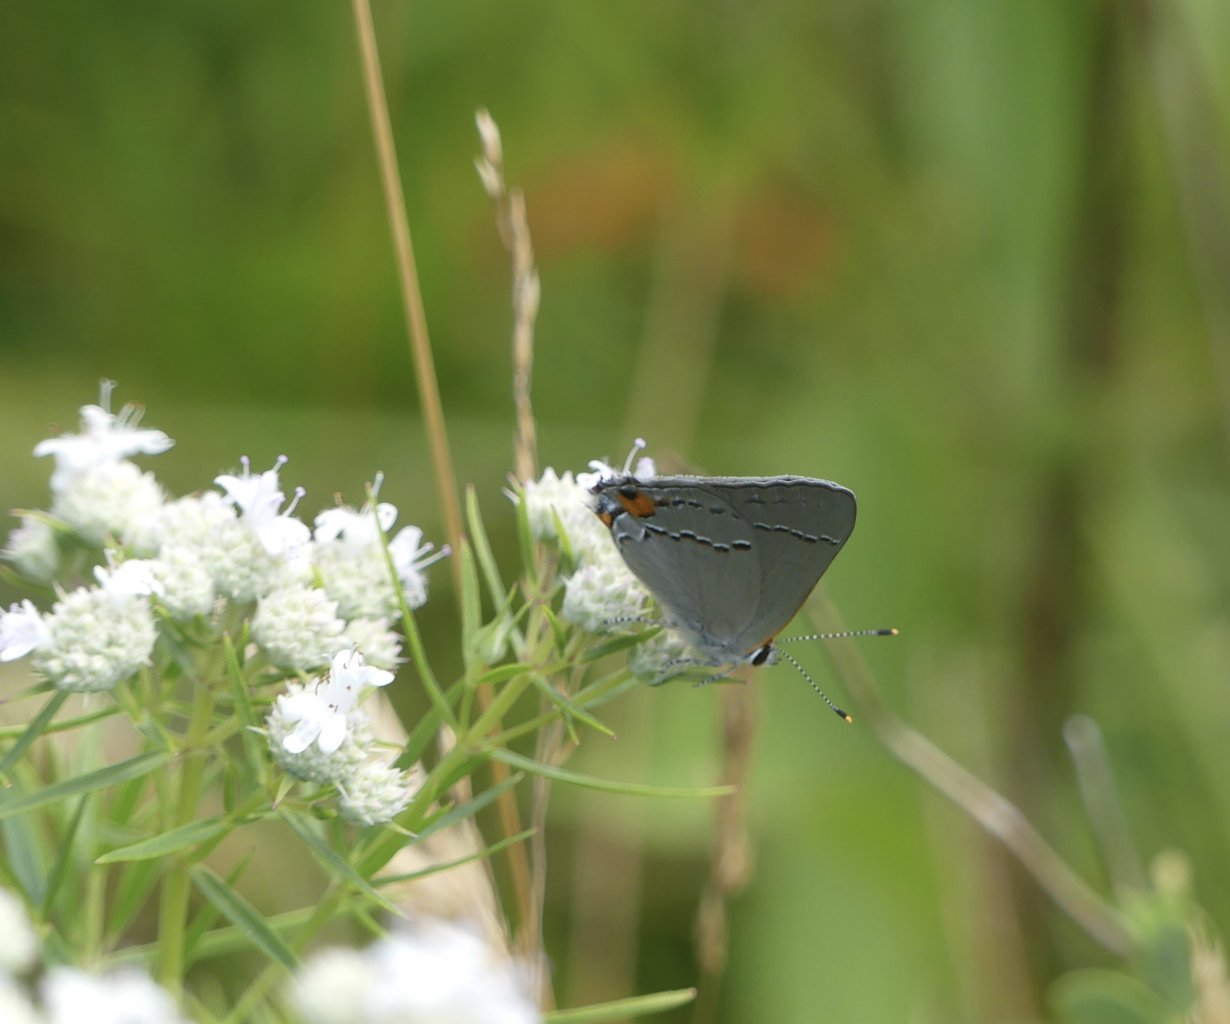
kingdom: Animalia
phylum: Arthropoda
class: Insecta
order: Lepidoptera
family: Lycaenidae
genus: Strymon
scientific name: Strymon melinus
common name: Gray Hairstreak
